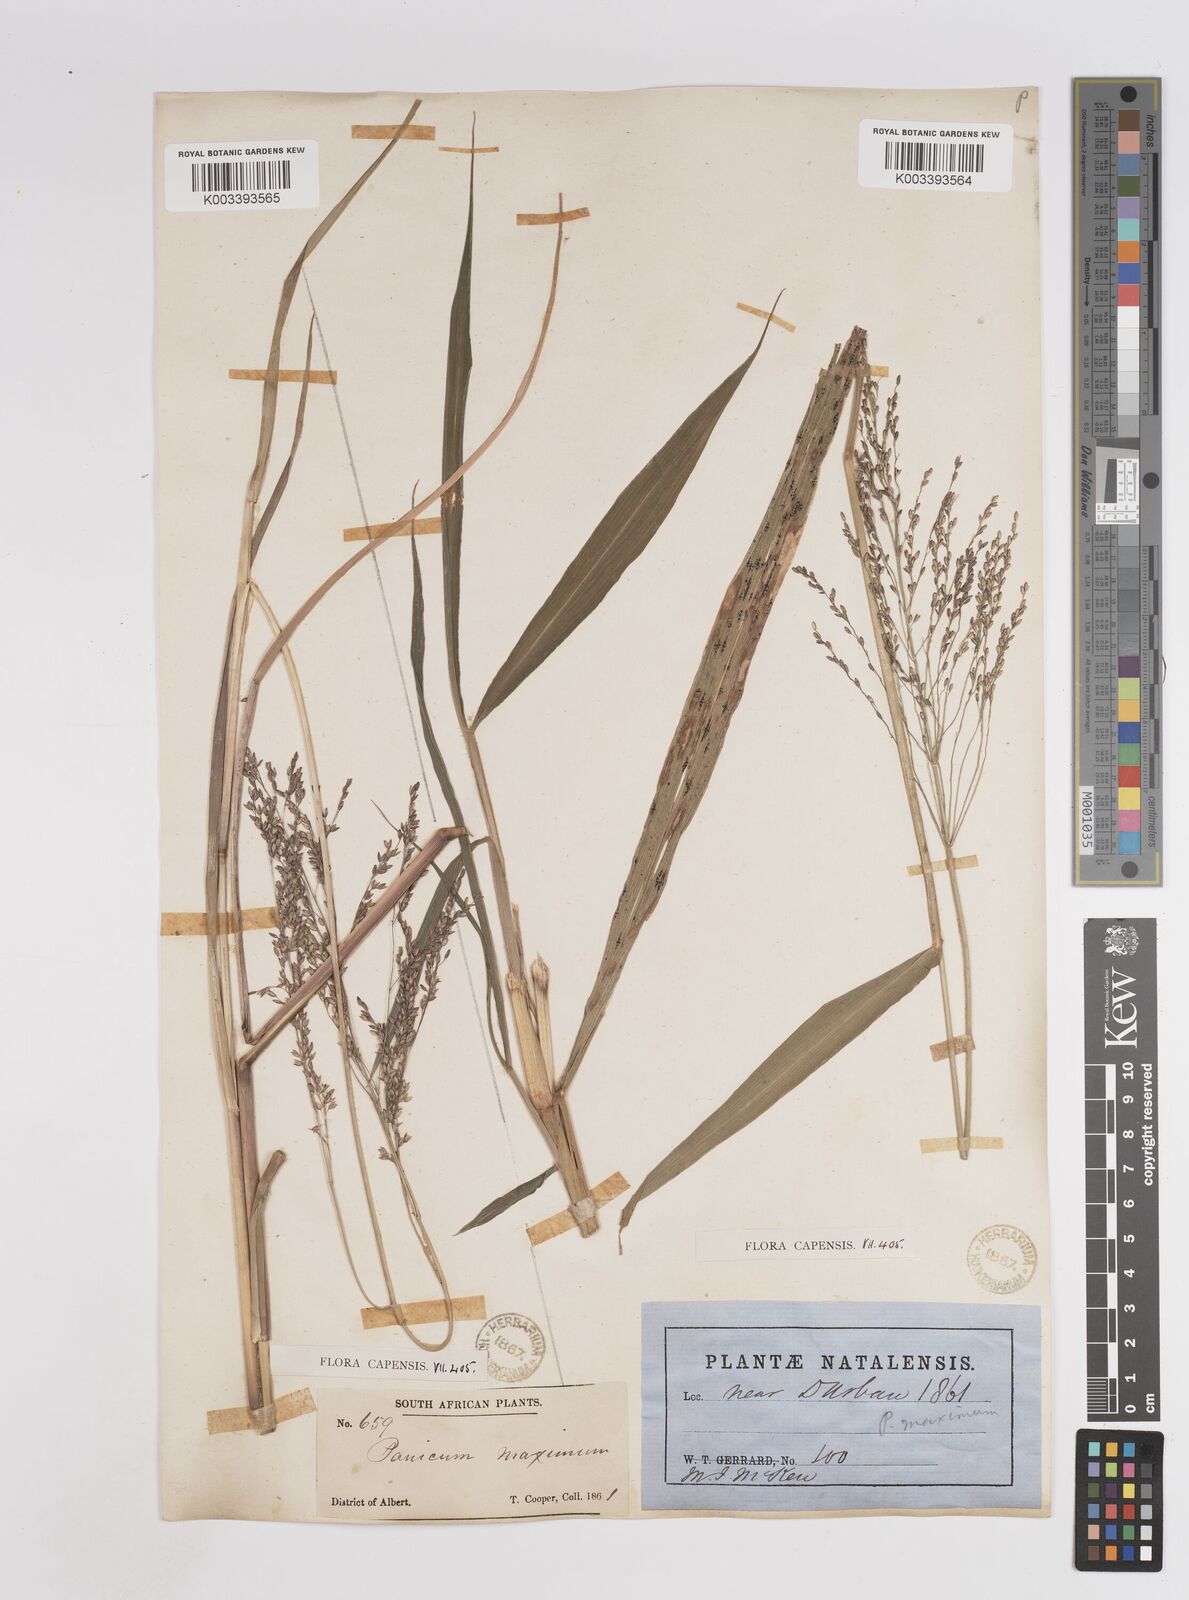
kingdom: Plantae
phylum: Tracheophyta
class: Liliopsida
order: Poales
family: Poaceae
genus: Megathyrsus
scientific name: Megathyrsus maximus
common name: Guineagrass
